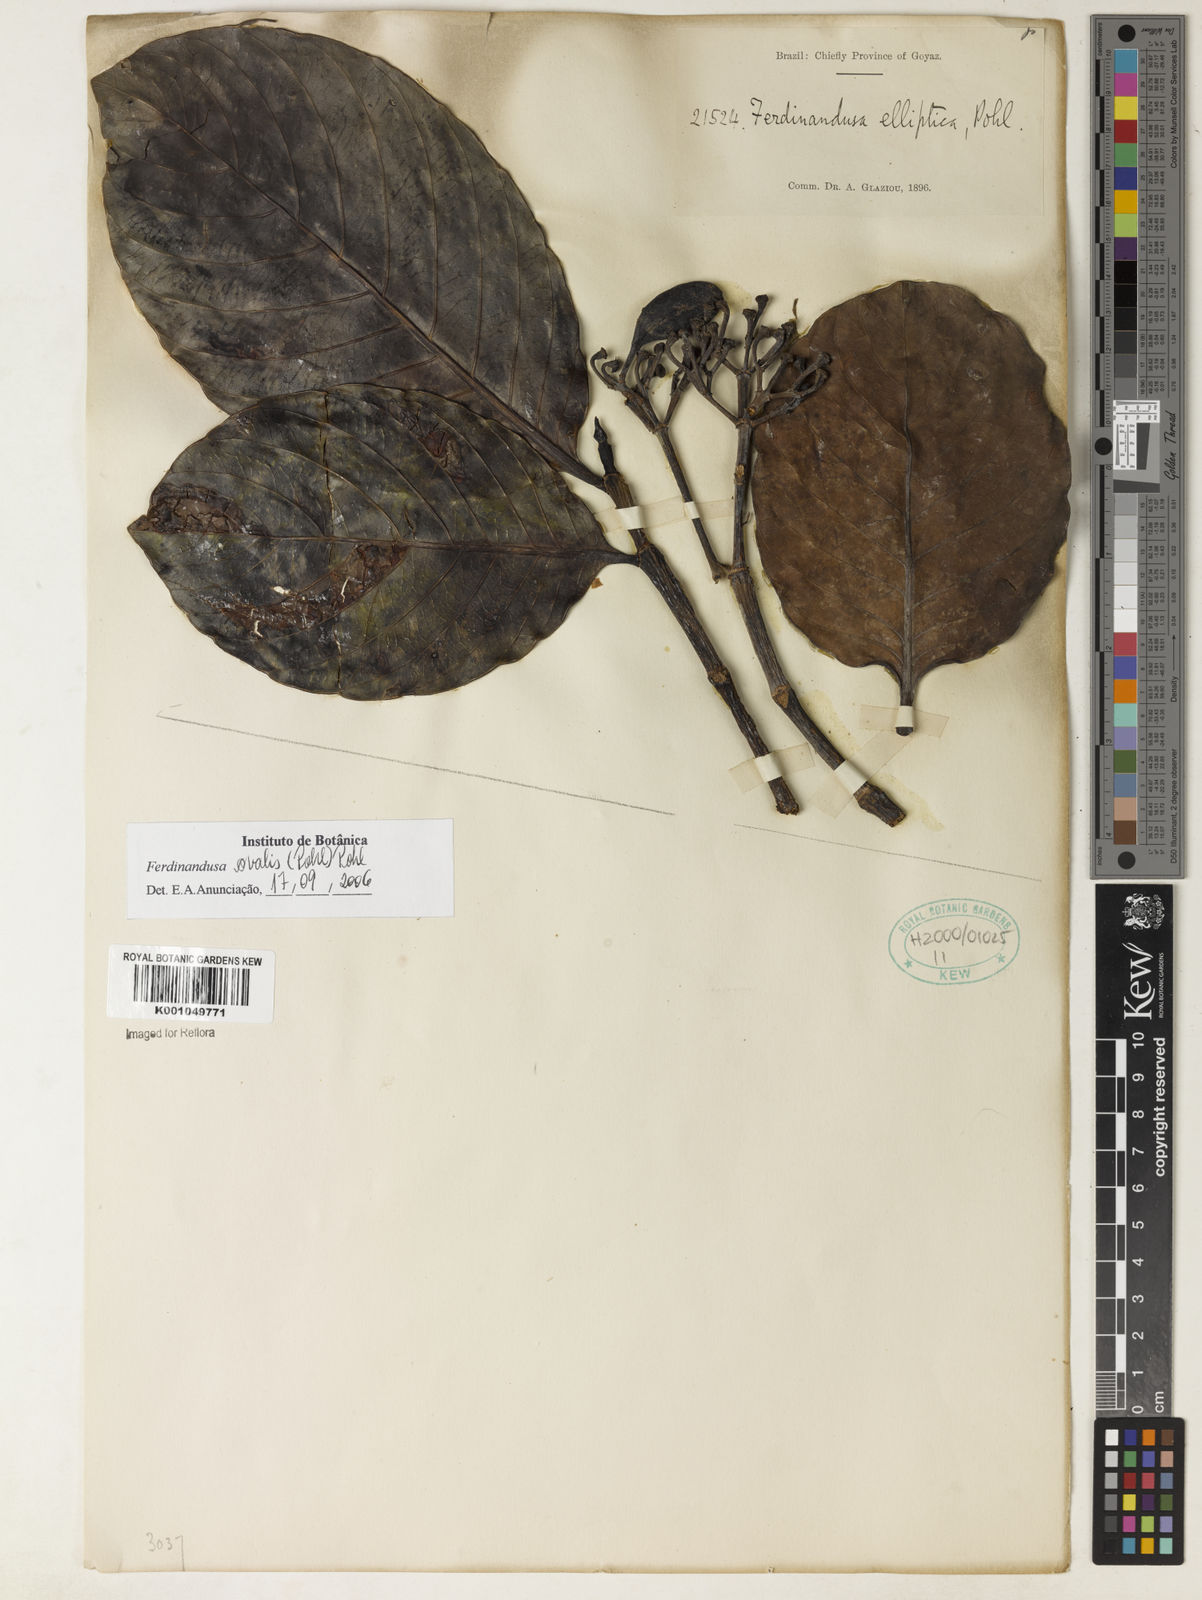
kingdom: Plantae
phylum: Tracheophyta
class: Magnoliopsida
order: Gentianales
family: Rubiaceae
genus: Ferdinandusa
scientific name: Ferdinandusa elliptica
